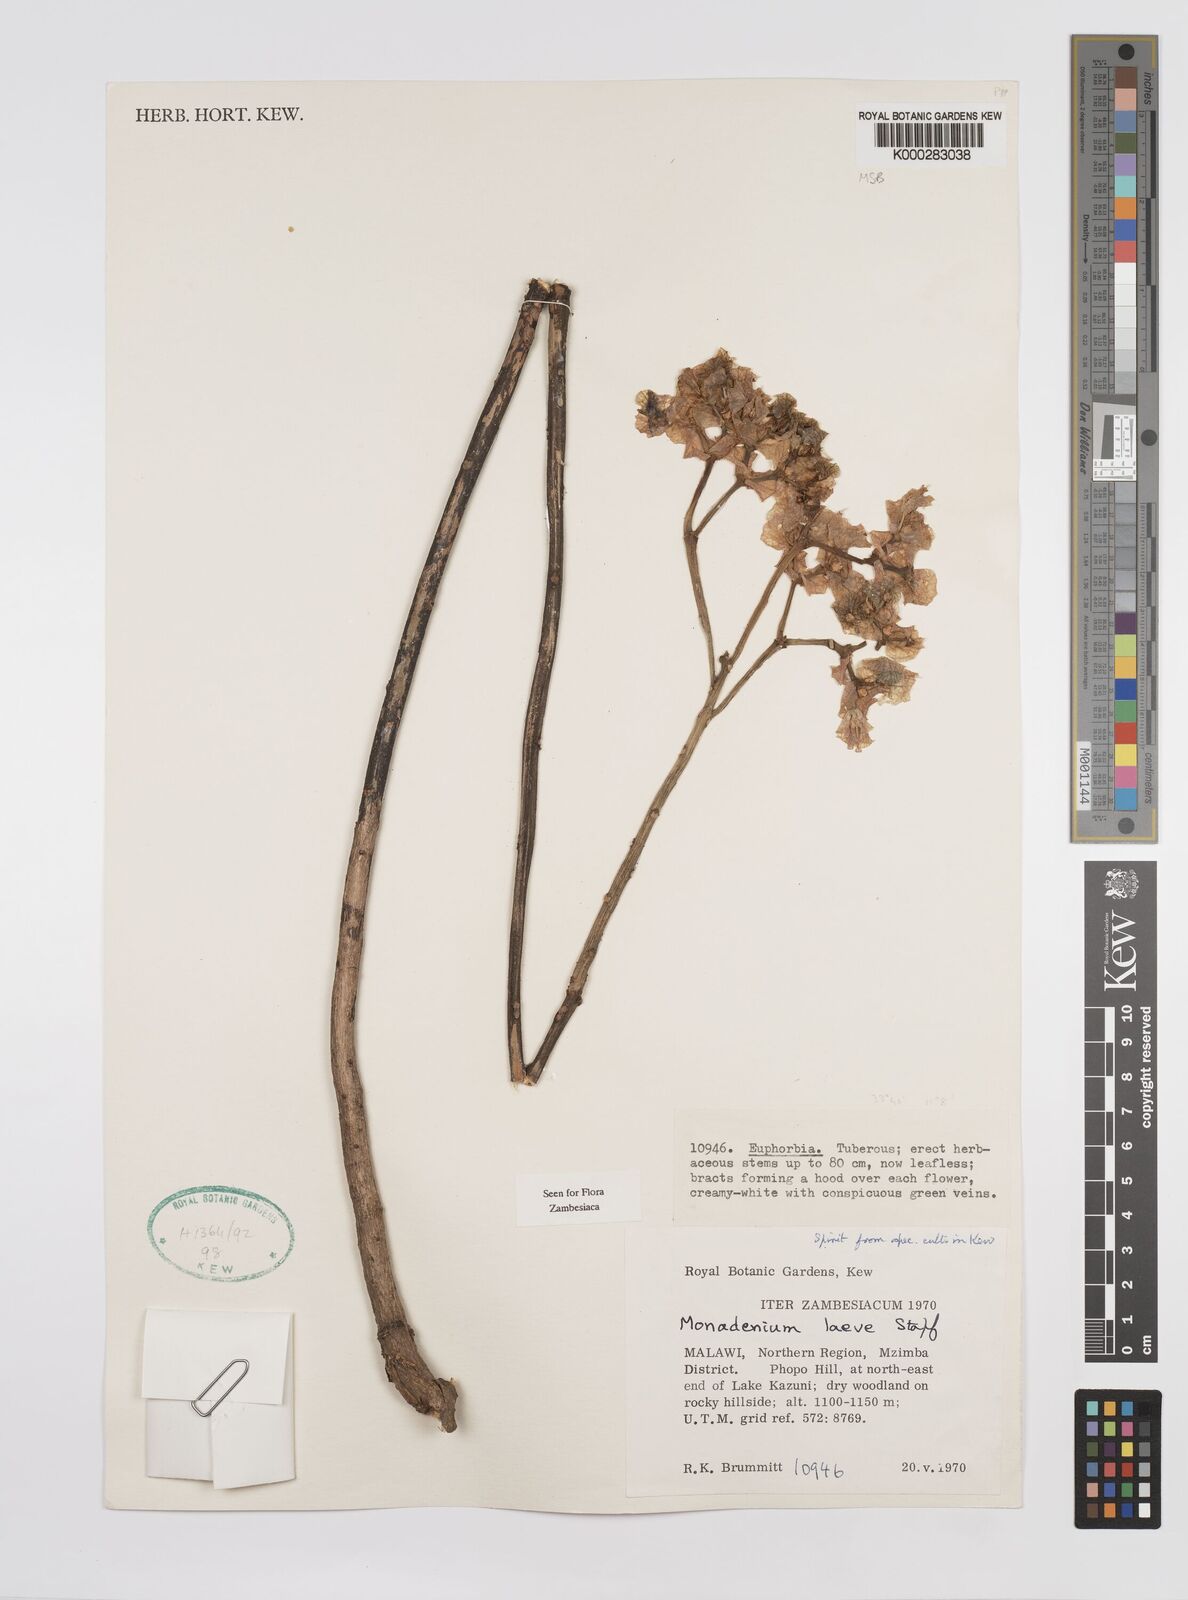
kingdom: Plantae
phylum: Tracheophyta
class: Magnoliopsida
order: Malpighiales
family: Euphorbiaceae
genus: Euphorbia
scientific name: Euphorbia pseudolaevis
